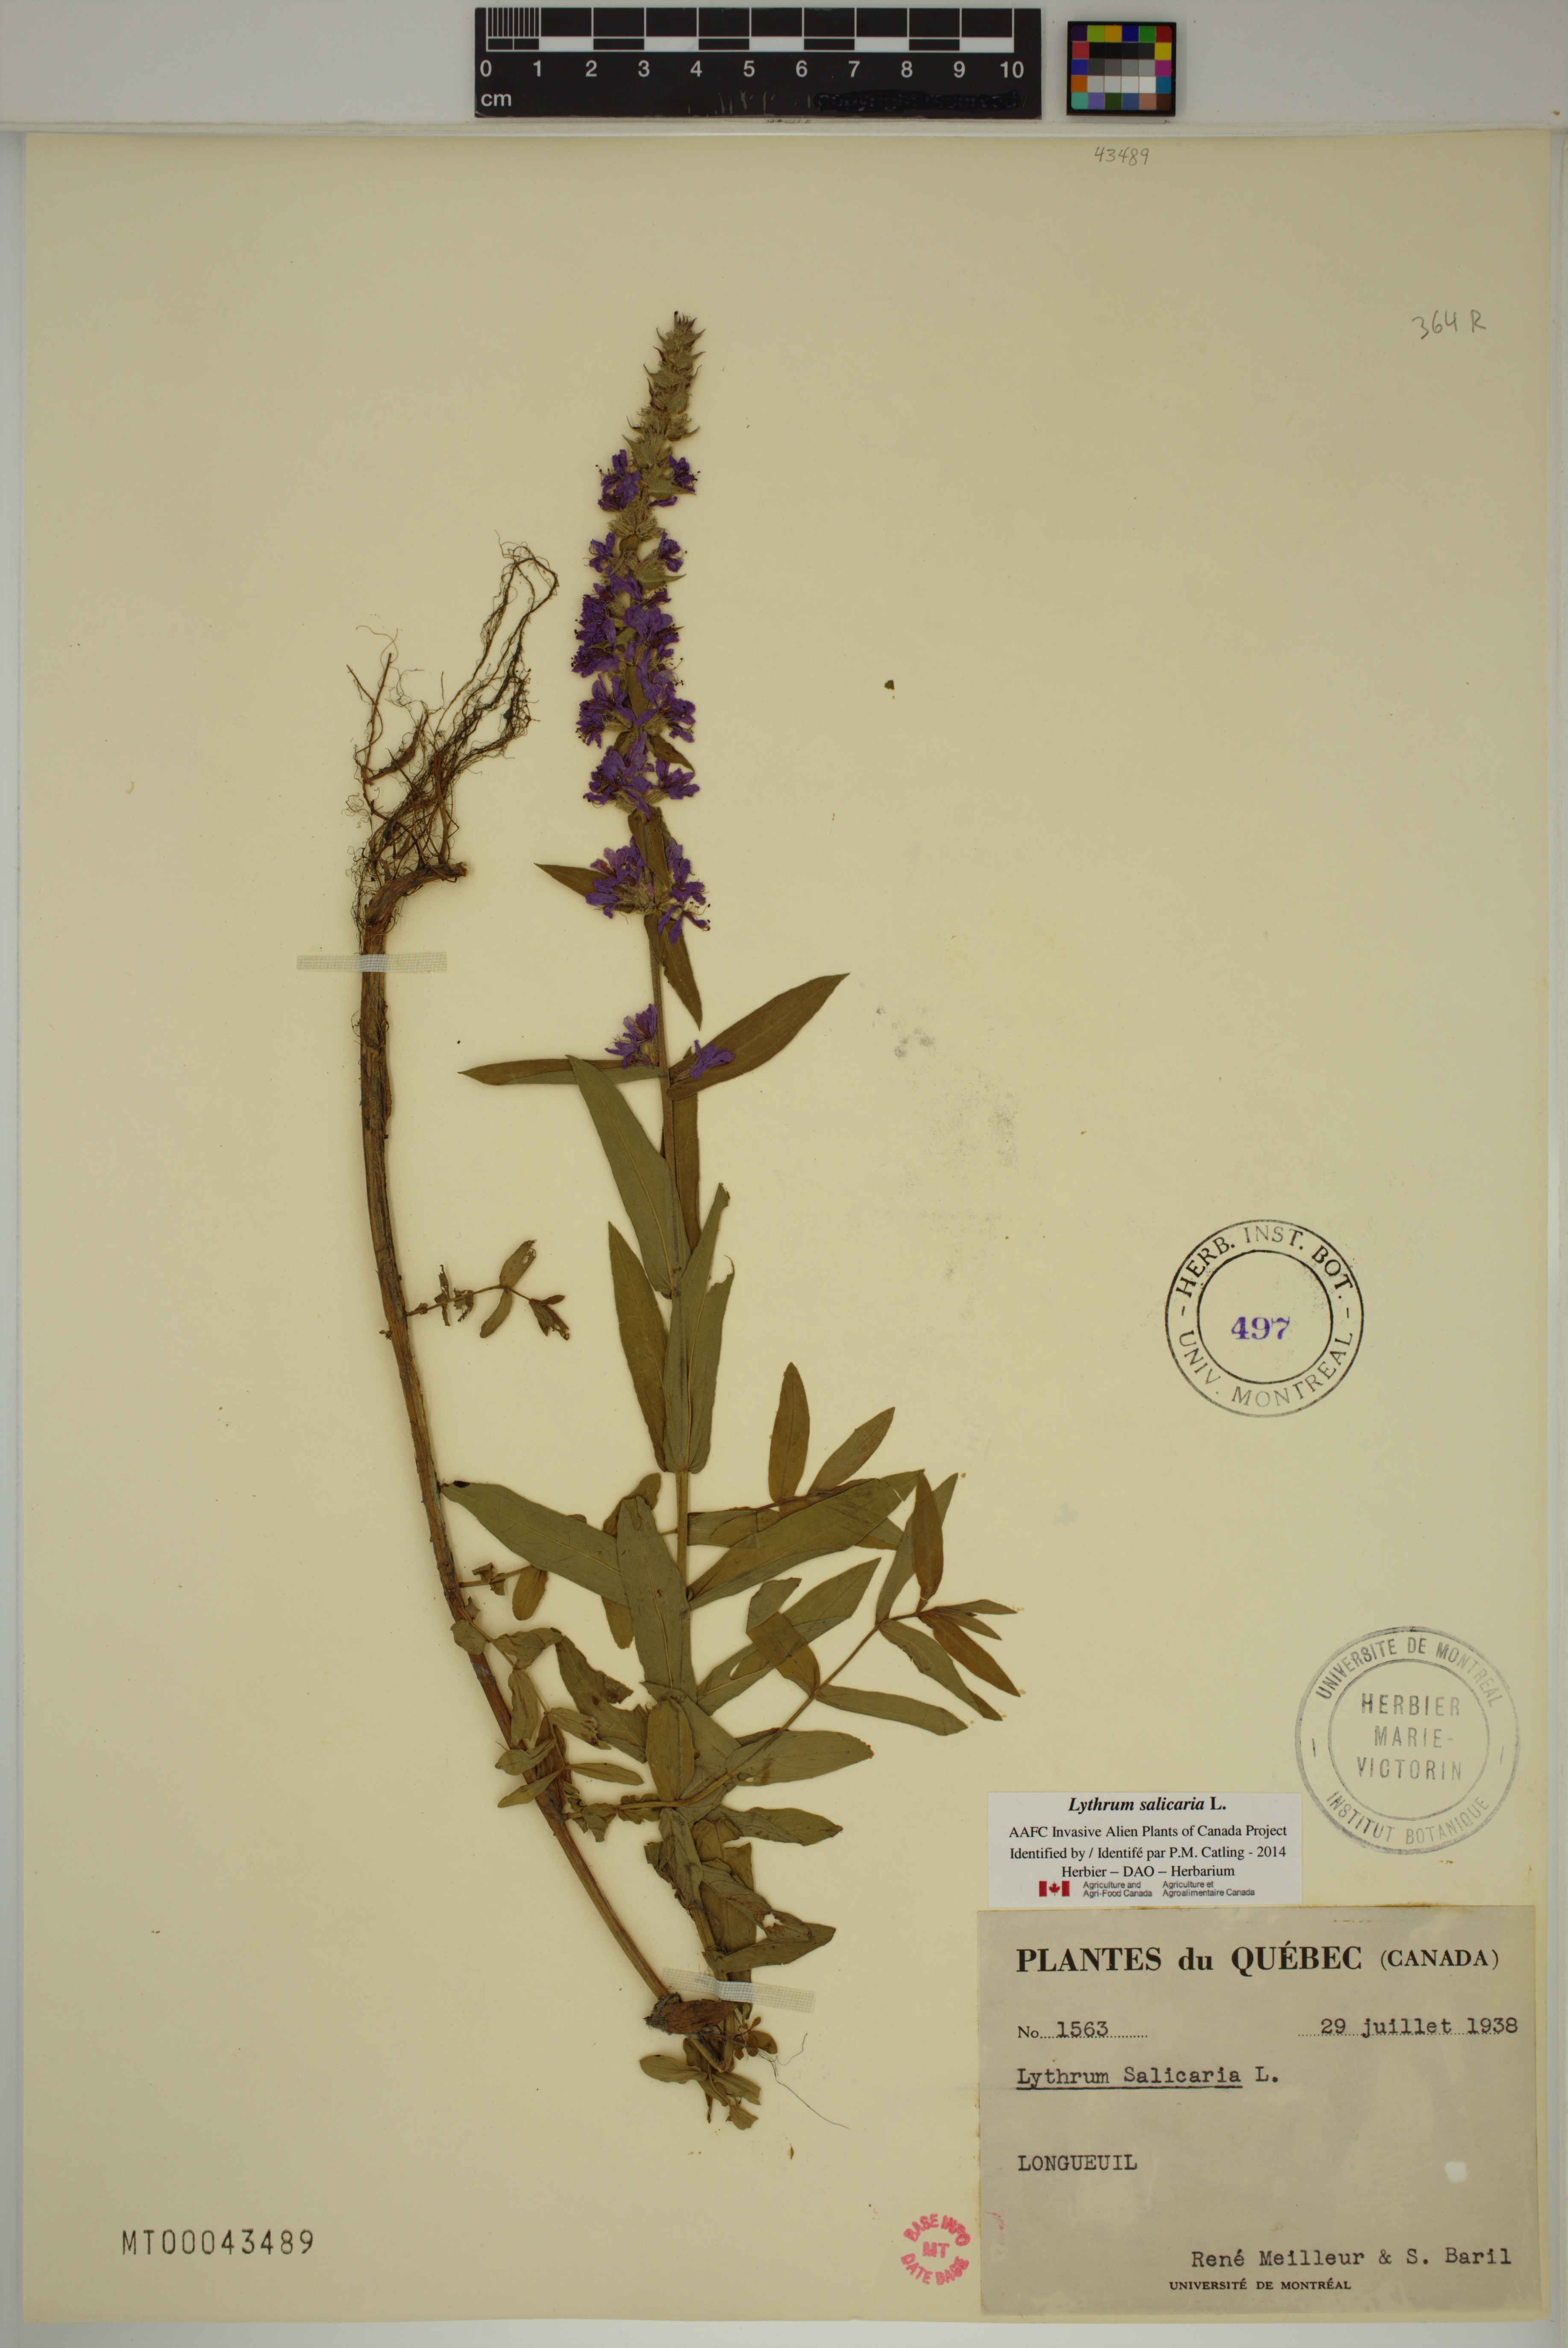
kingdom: Plantae
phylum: Tracheophyta
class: Magnoliopsida
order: Myrtales
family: Lythraceae
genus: Lythrum
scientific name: Lythrum salicaria
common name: Purple loosestrife
